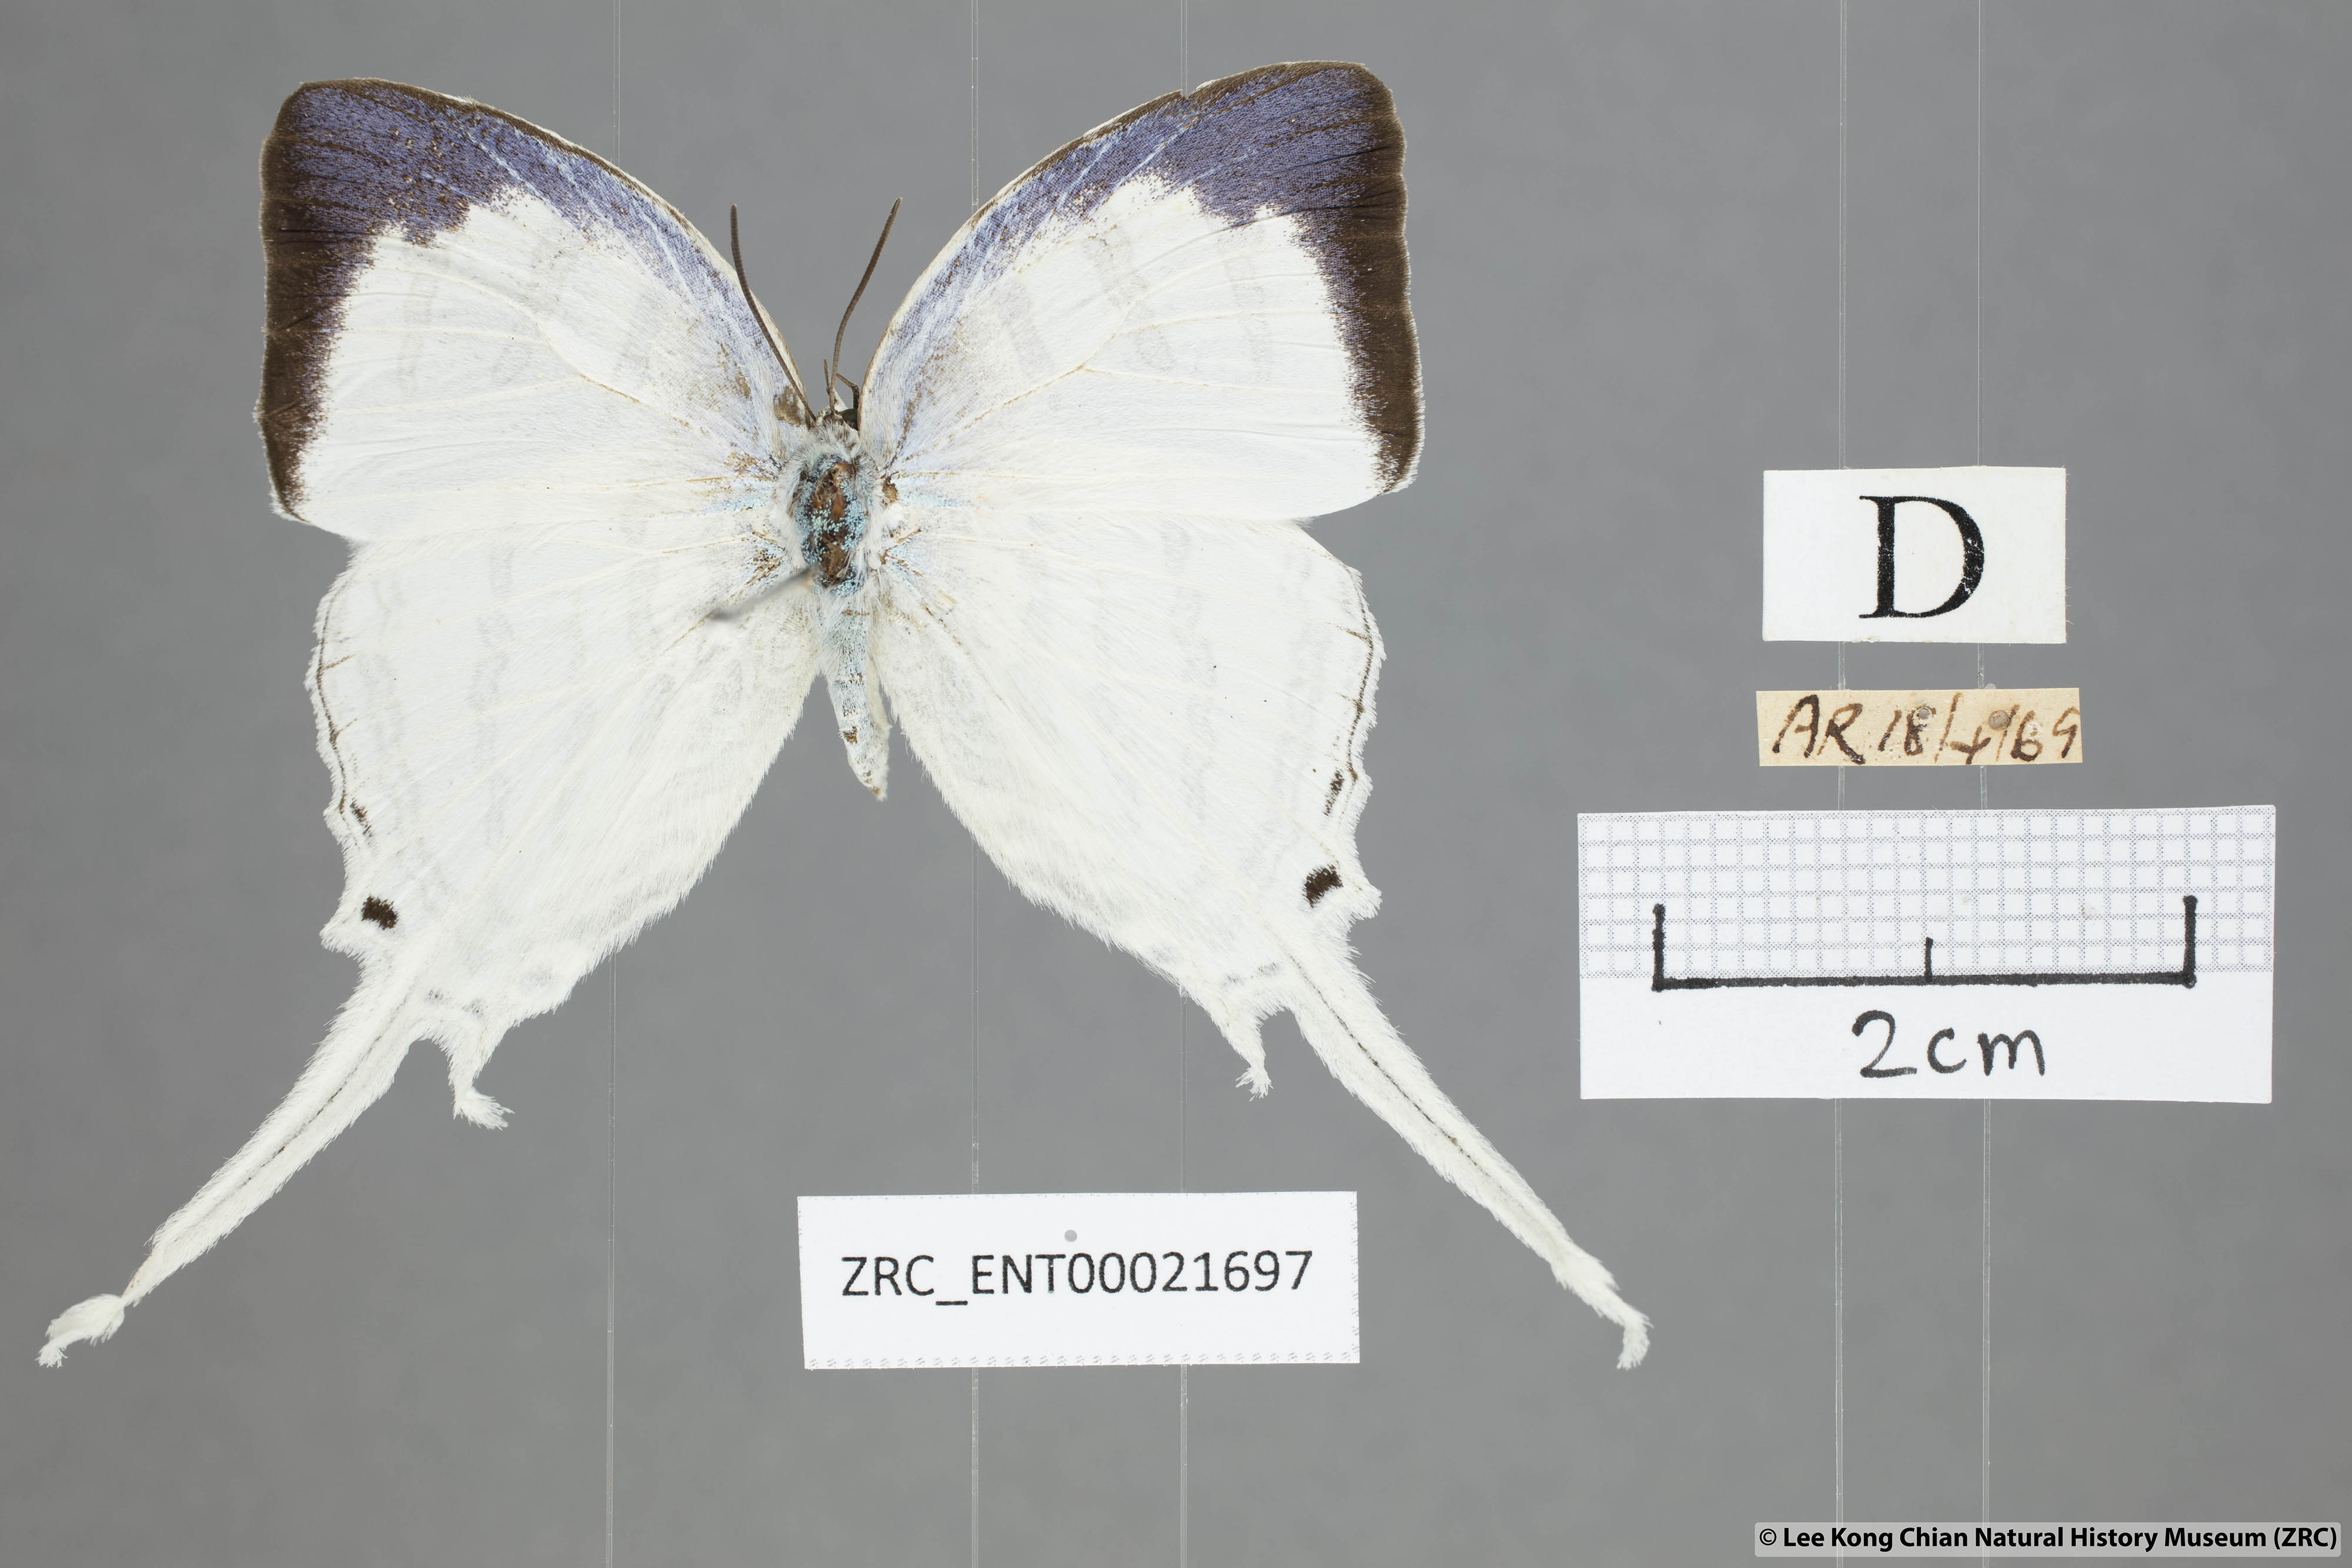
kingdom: Animalia
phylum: Arthropoda
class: Insecta
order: Lepidoptera
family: Lycaenidae
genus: Neomyrina
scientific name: Neomyrina nivea
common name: White imperial butterfly
